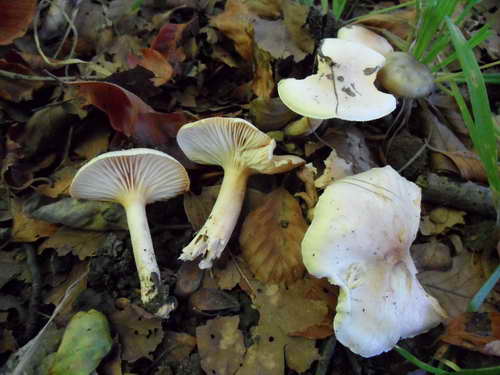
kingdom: Fungi
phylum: Basidiomycota
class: Agaricomycetes
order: Agaricales
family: Hygrophoraceae
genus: Hygrophorus
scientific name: Hygrophorus unicolor
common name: orangeøjet sneglehat
